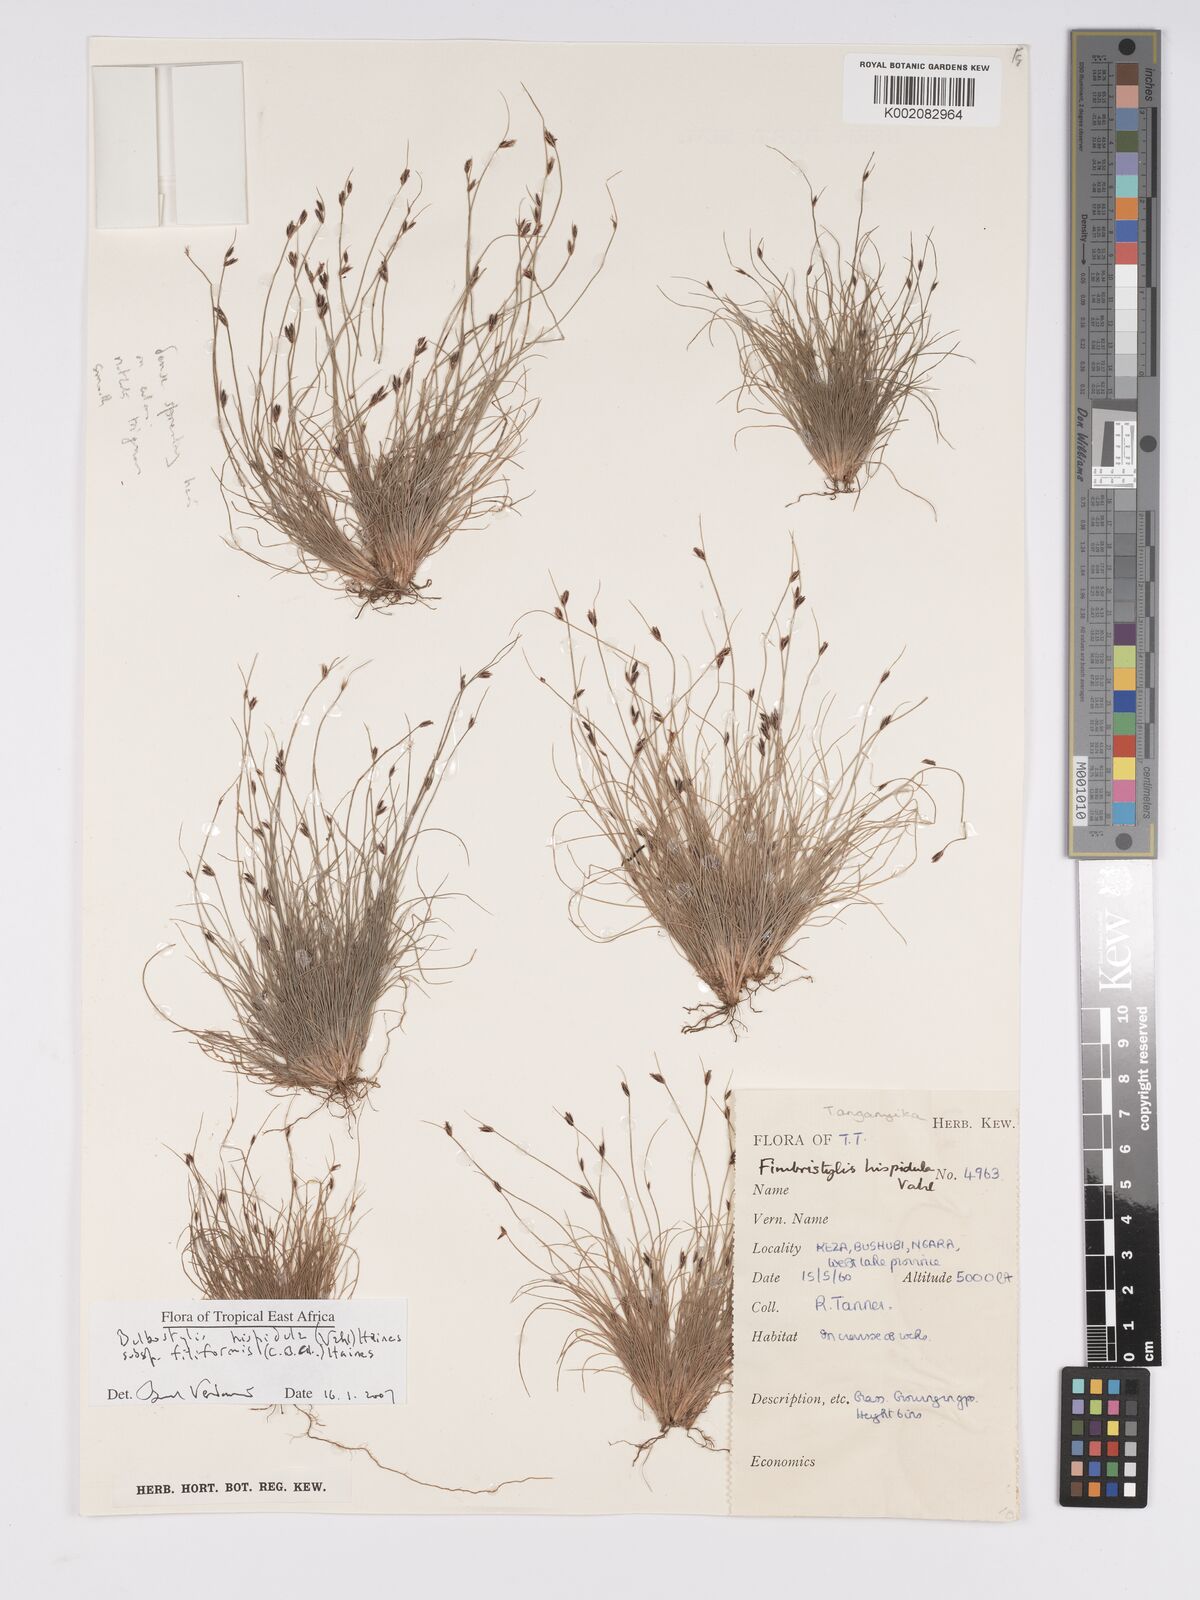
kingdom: Plantae
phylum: Tracheophyta
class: Liliopsida
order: Poales
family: Cyperaceae
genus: Bulbostylis
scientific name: Bulbostylis hispidula
